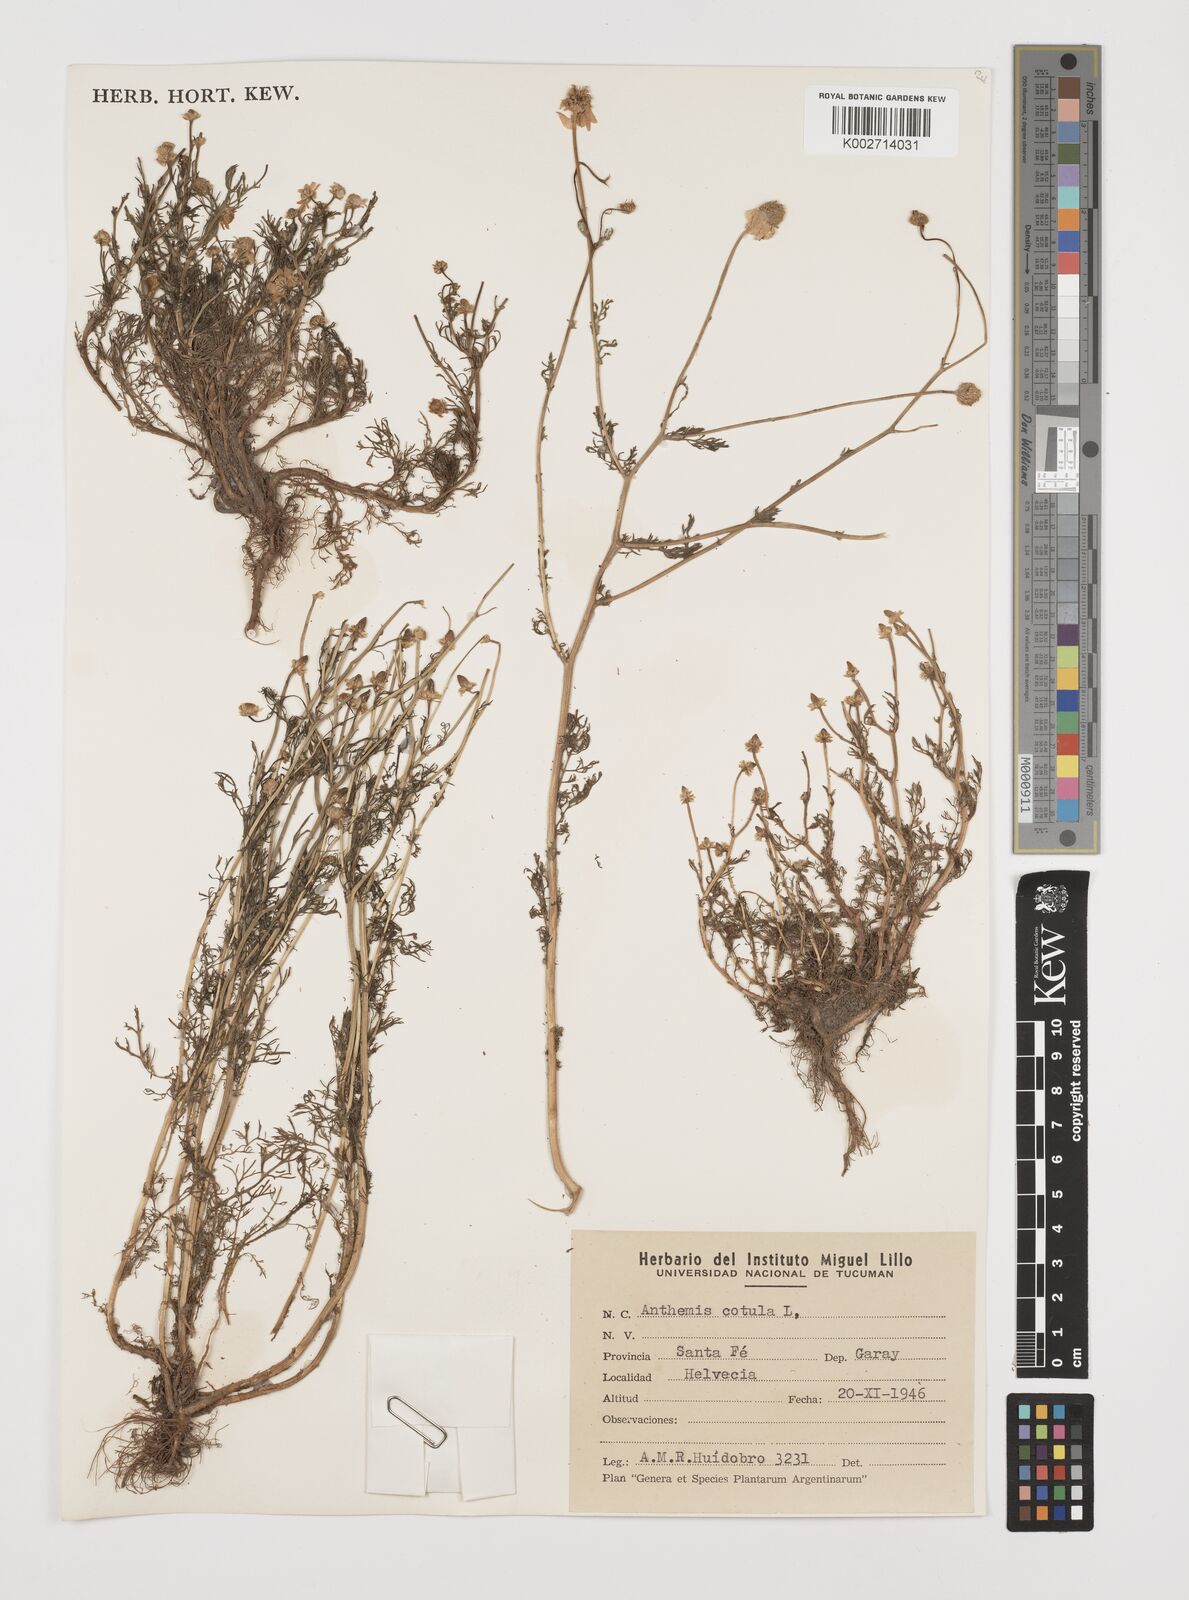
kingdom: Plantae
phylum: Tracheophyta
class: Magnoliopsida
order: Asterales
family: Asteraceae
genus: Anthemis
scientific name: Anthemis cotula
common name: Stinking chamomile
